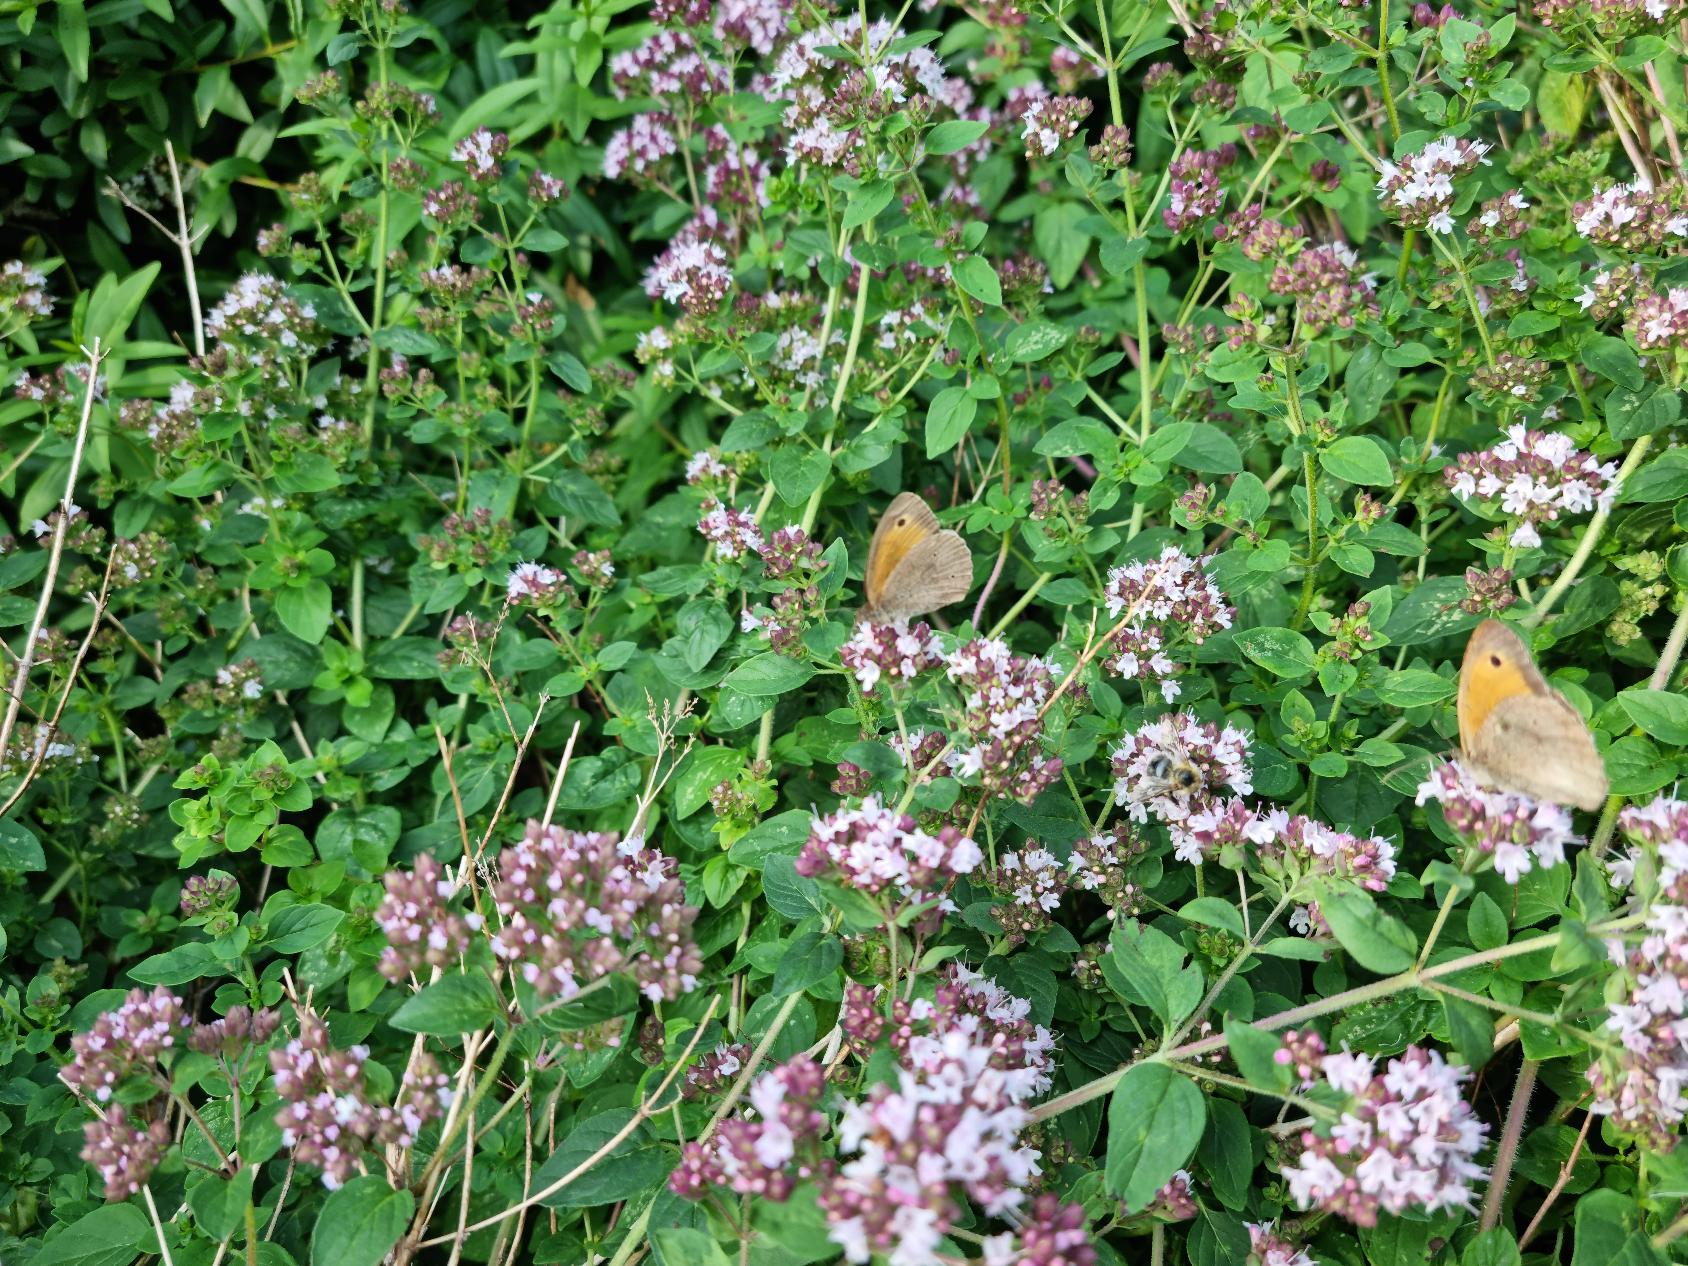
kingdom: Animalia
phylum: Arthropoda
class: Insecta
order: Lepidoptera
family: Nymphalidae
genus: Maniola
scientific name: Maniola jurtina
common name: Græsrandøje
